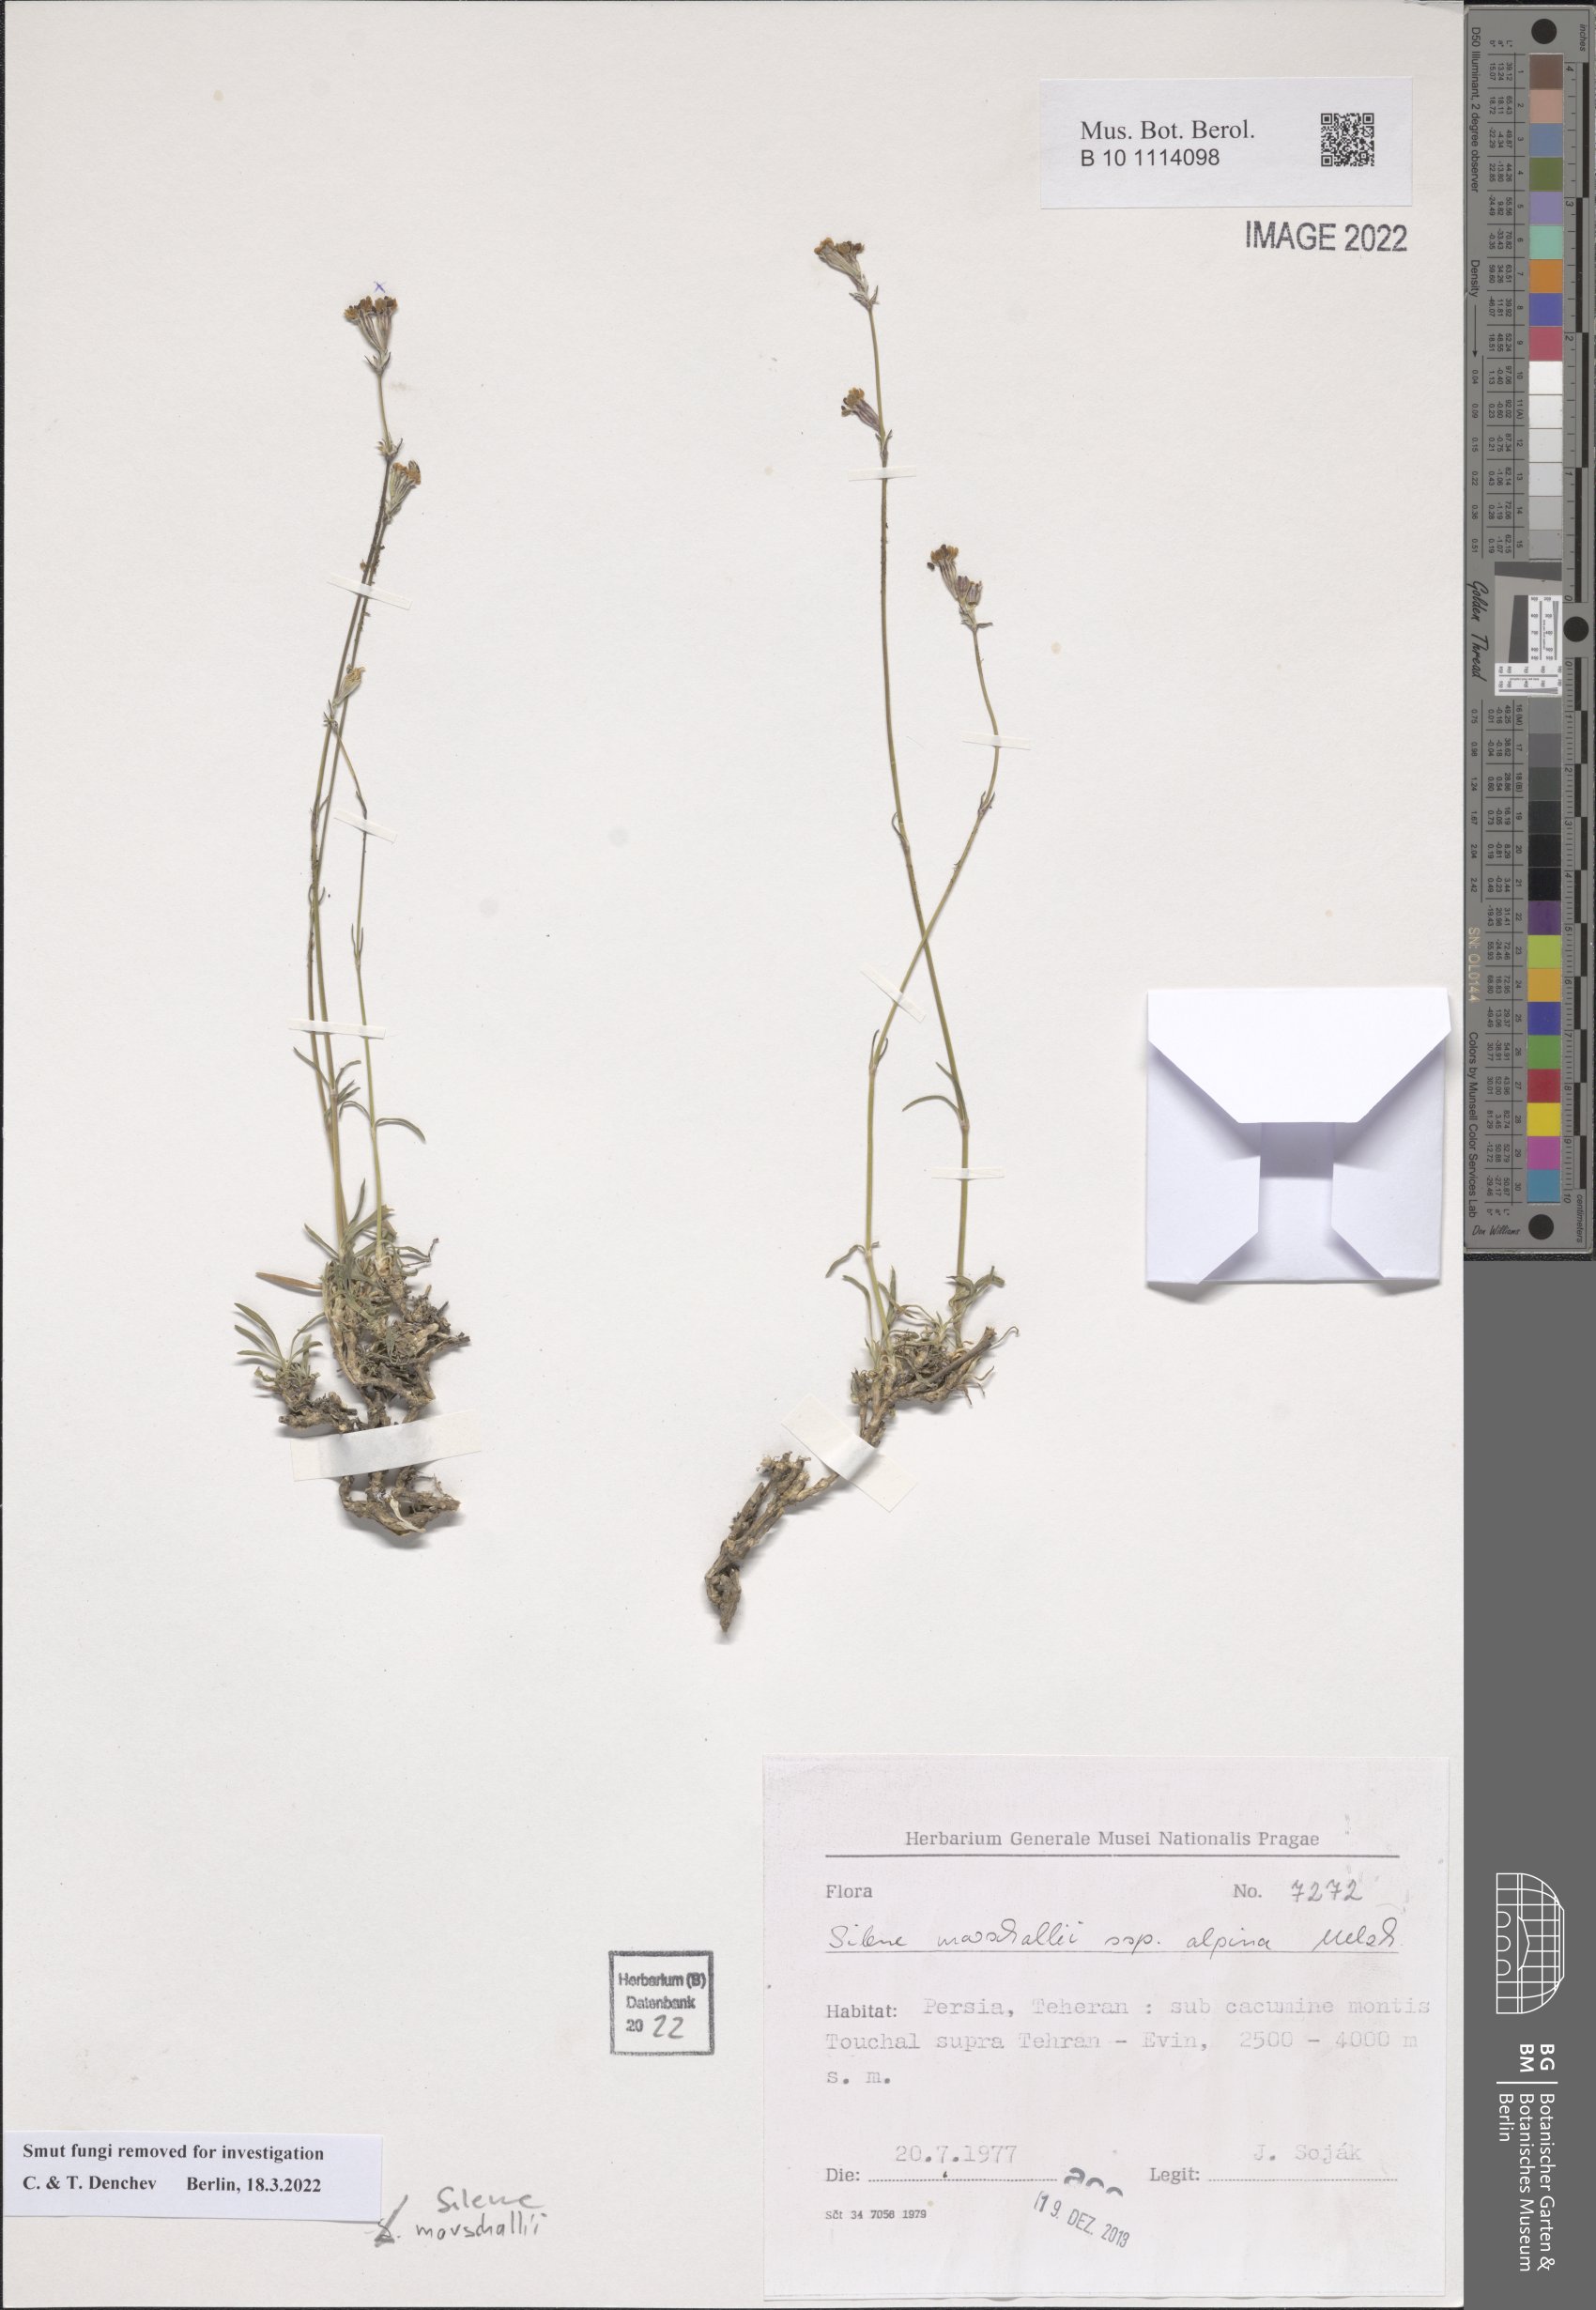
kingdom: Plantae
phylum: Tracheophyta
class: Magnoliopsida
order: Caryophyllales
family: Caryophyllaceae
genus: Silene
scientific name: Silene marschallii
